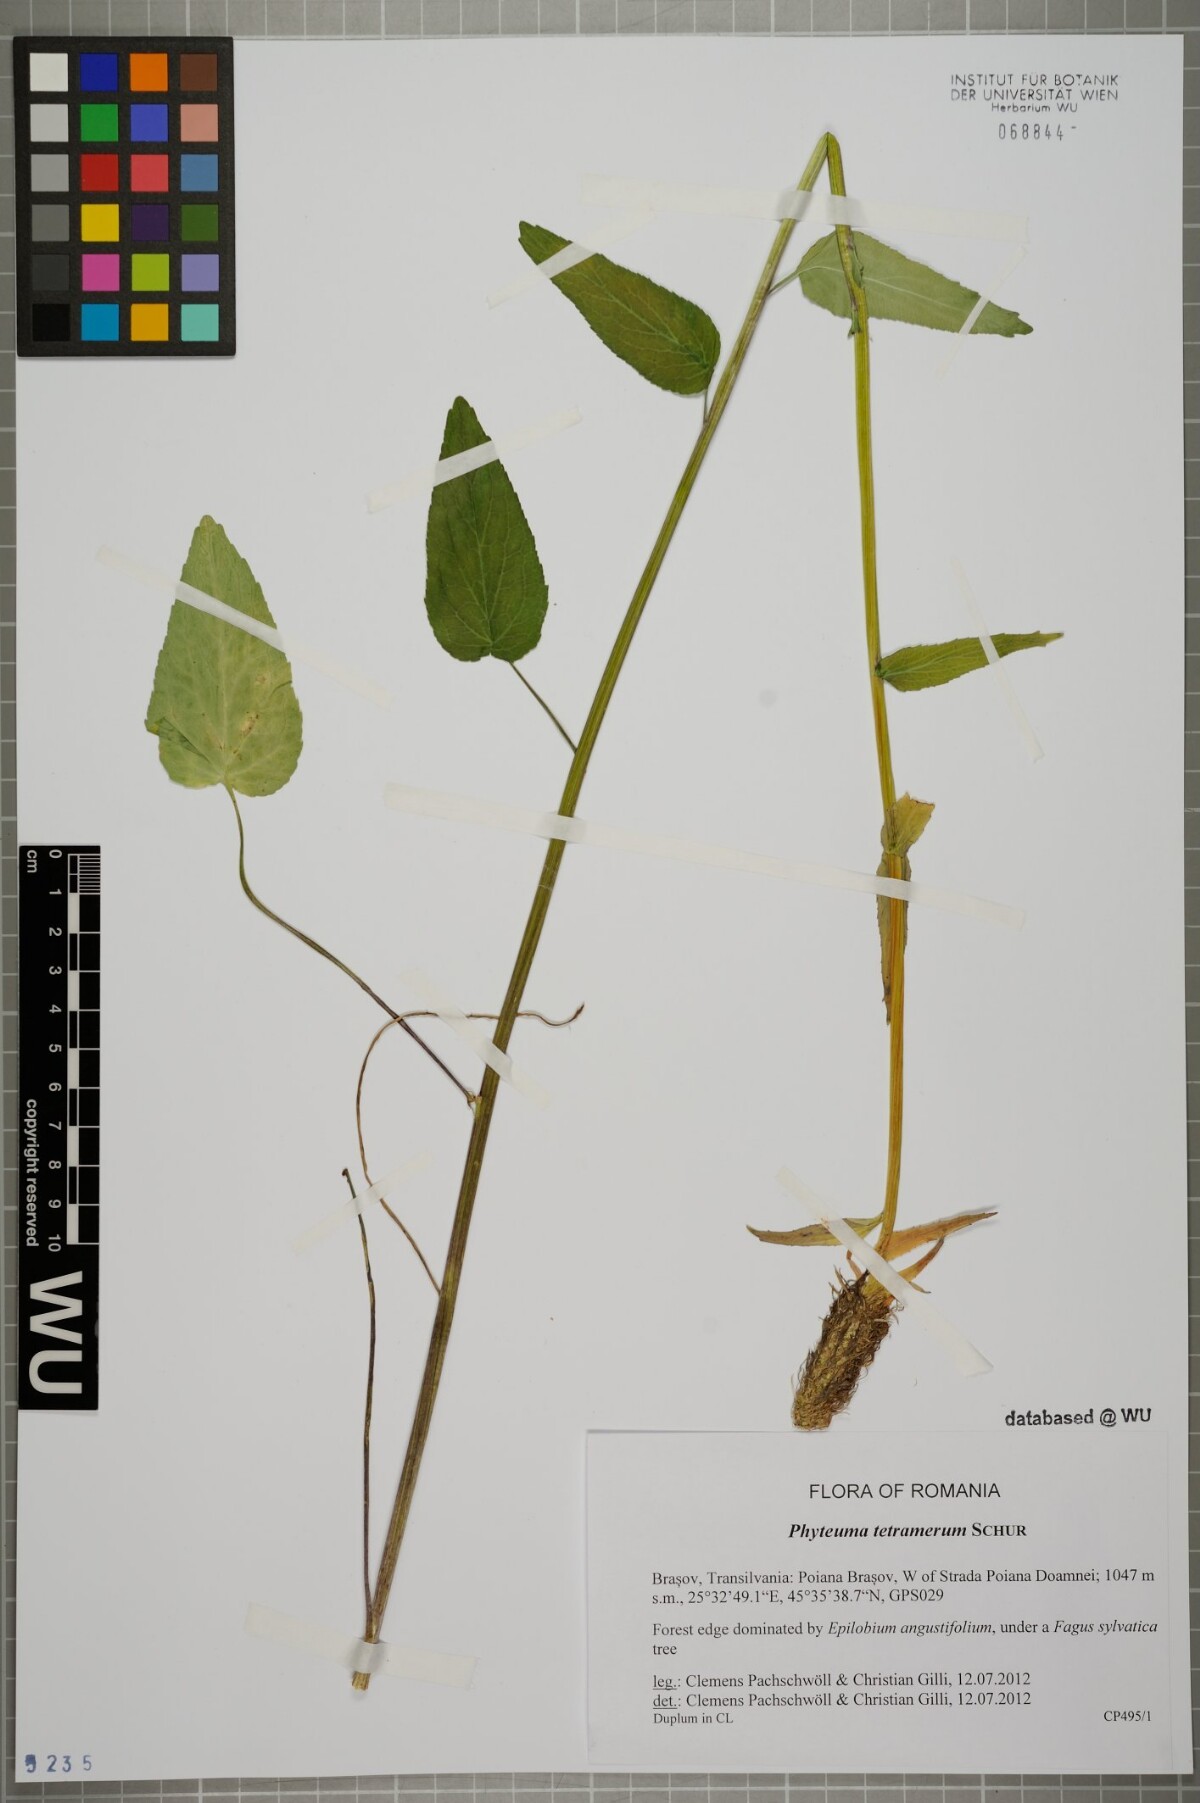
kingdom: Plantae
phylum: Tracheophyta
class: Magnoliopsida
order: Asterales
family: Campanulaceae
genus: Phyteuma
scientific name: Phyteuma tetramerum
